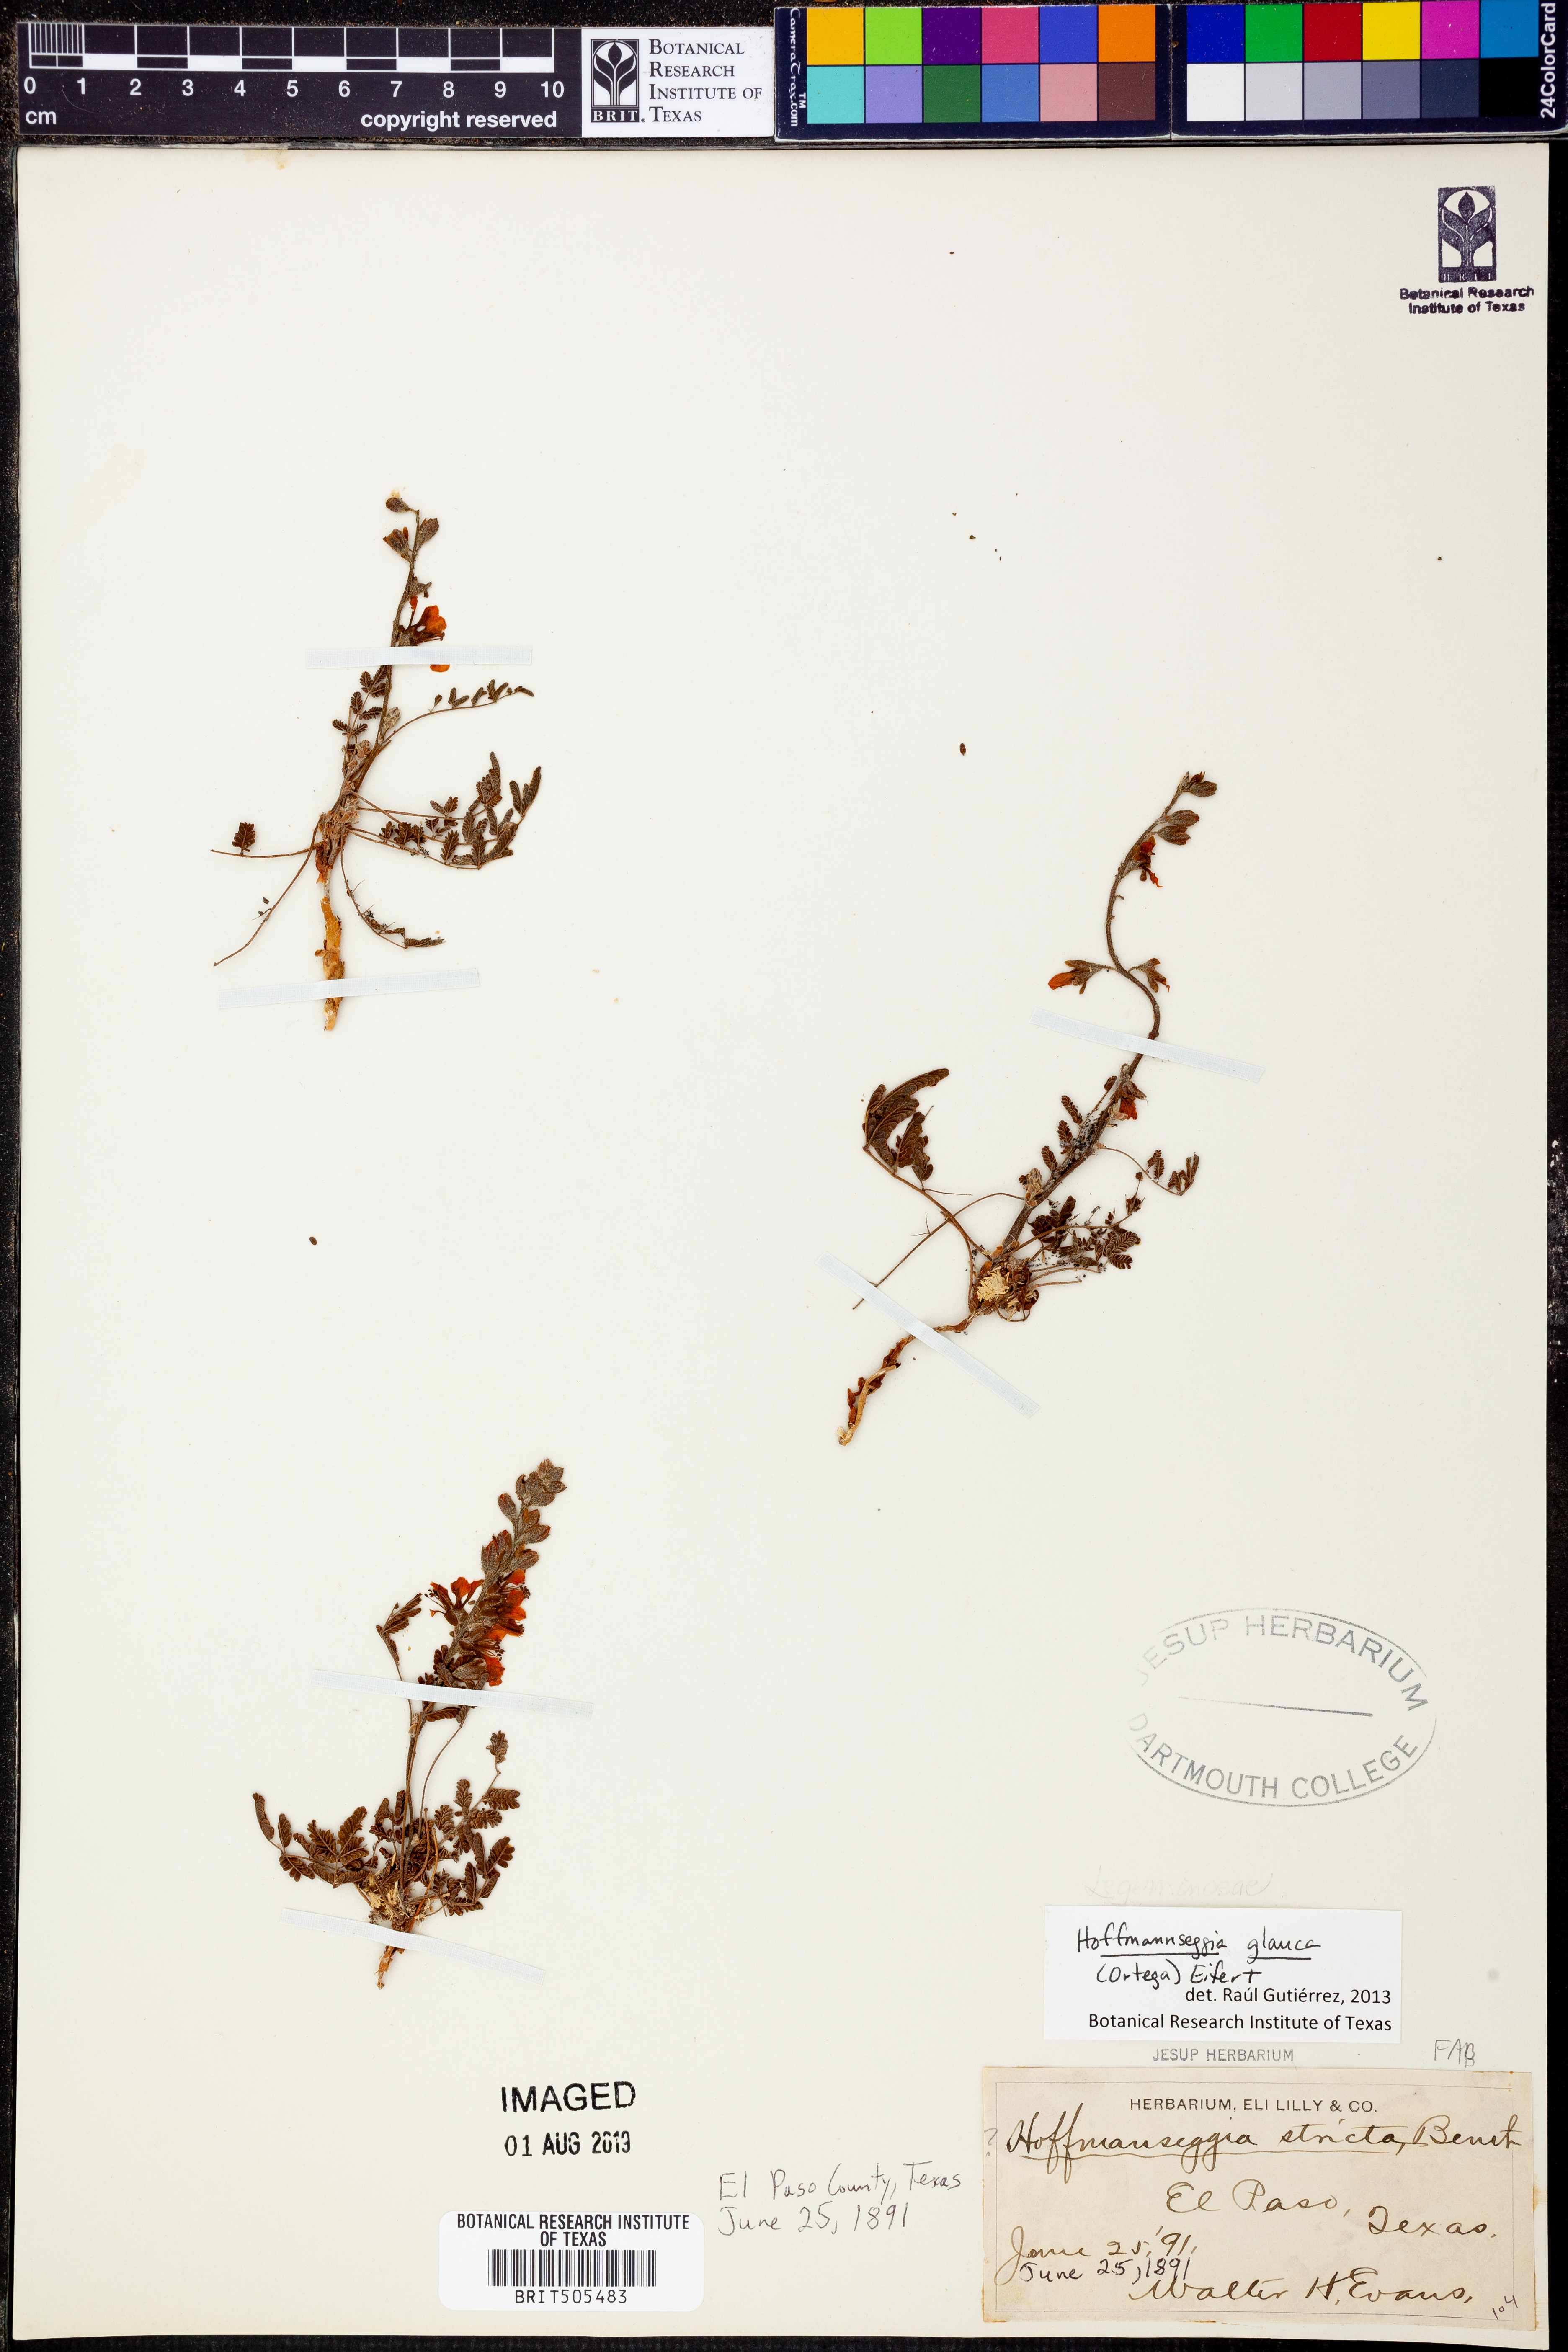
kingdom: Plantae
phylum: Tracheophyta
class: Magnoliopsida
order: Fabales
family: Fabaceae
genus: Hoffmannseggia
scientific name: Hoffmannseggia glauca
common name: Pignut
